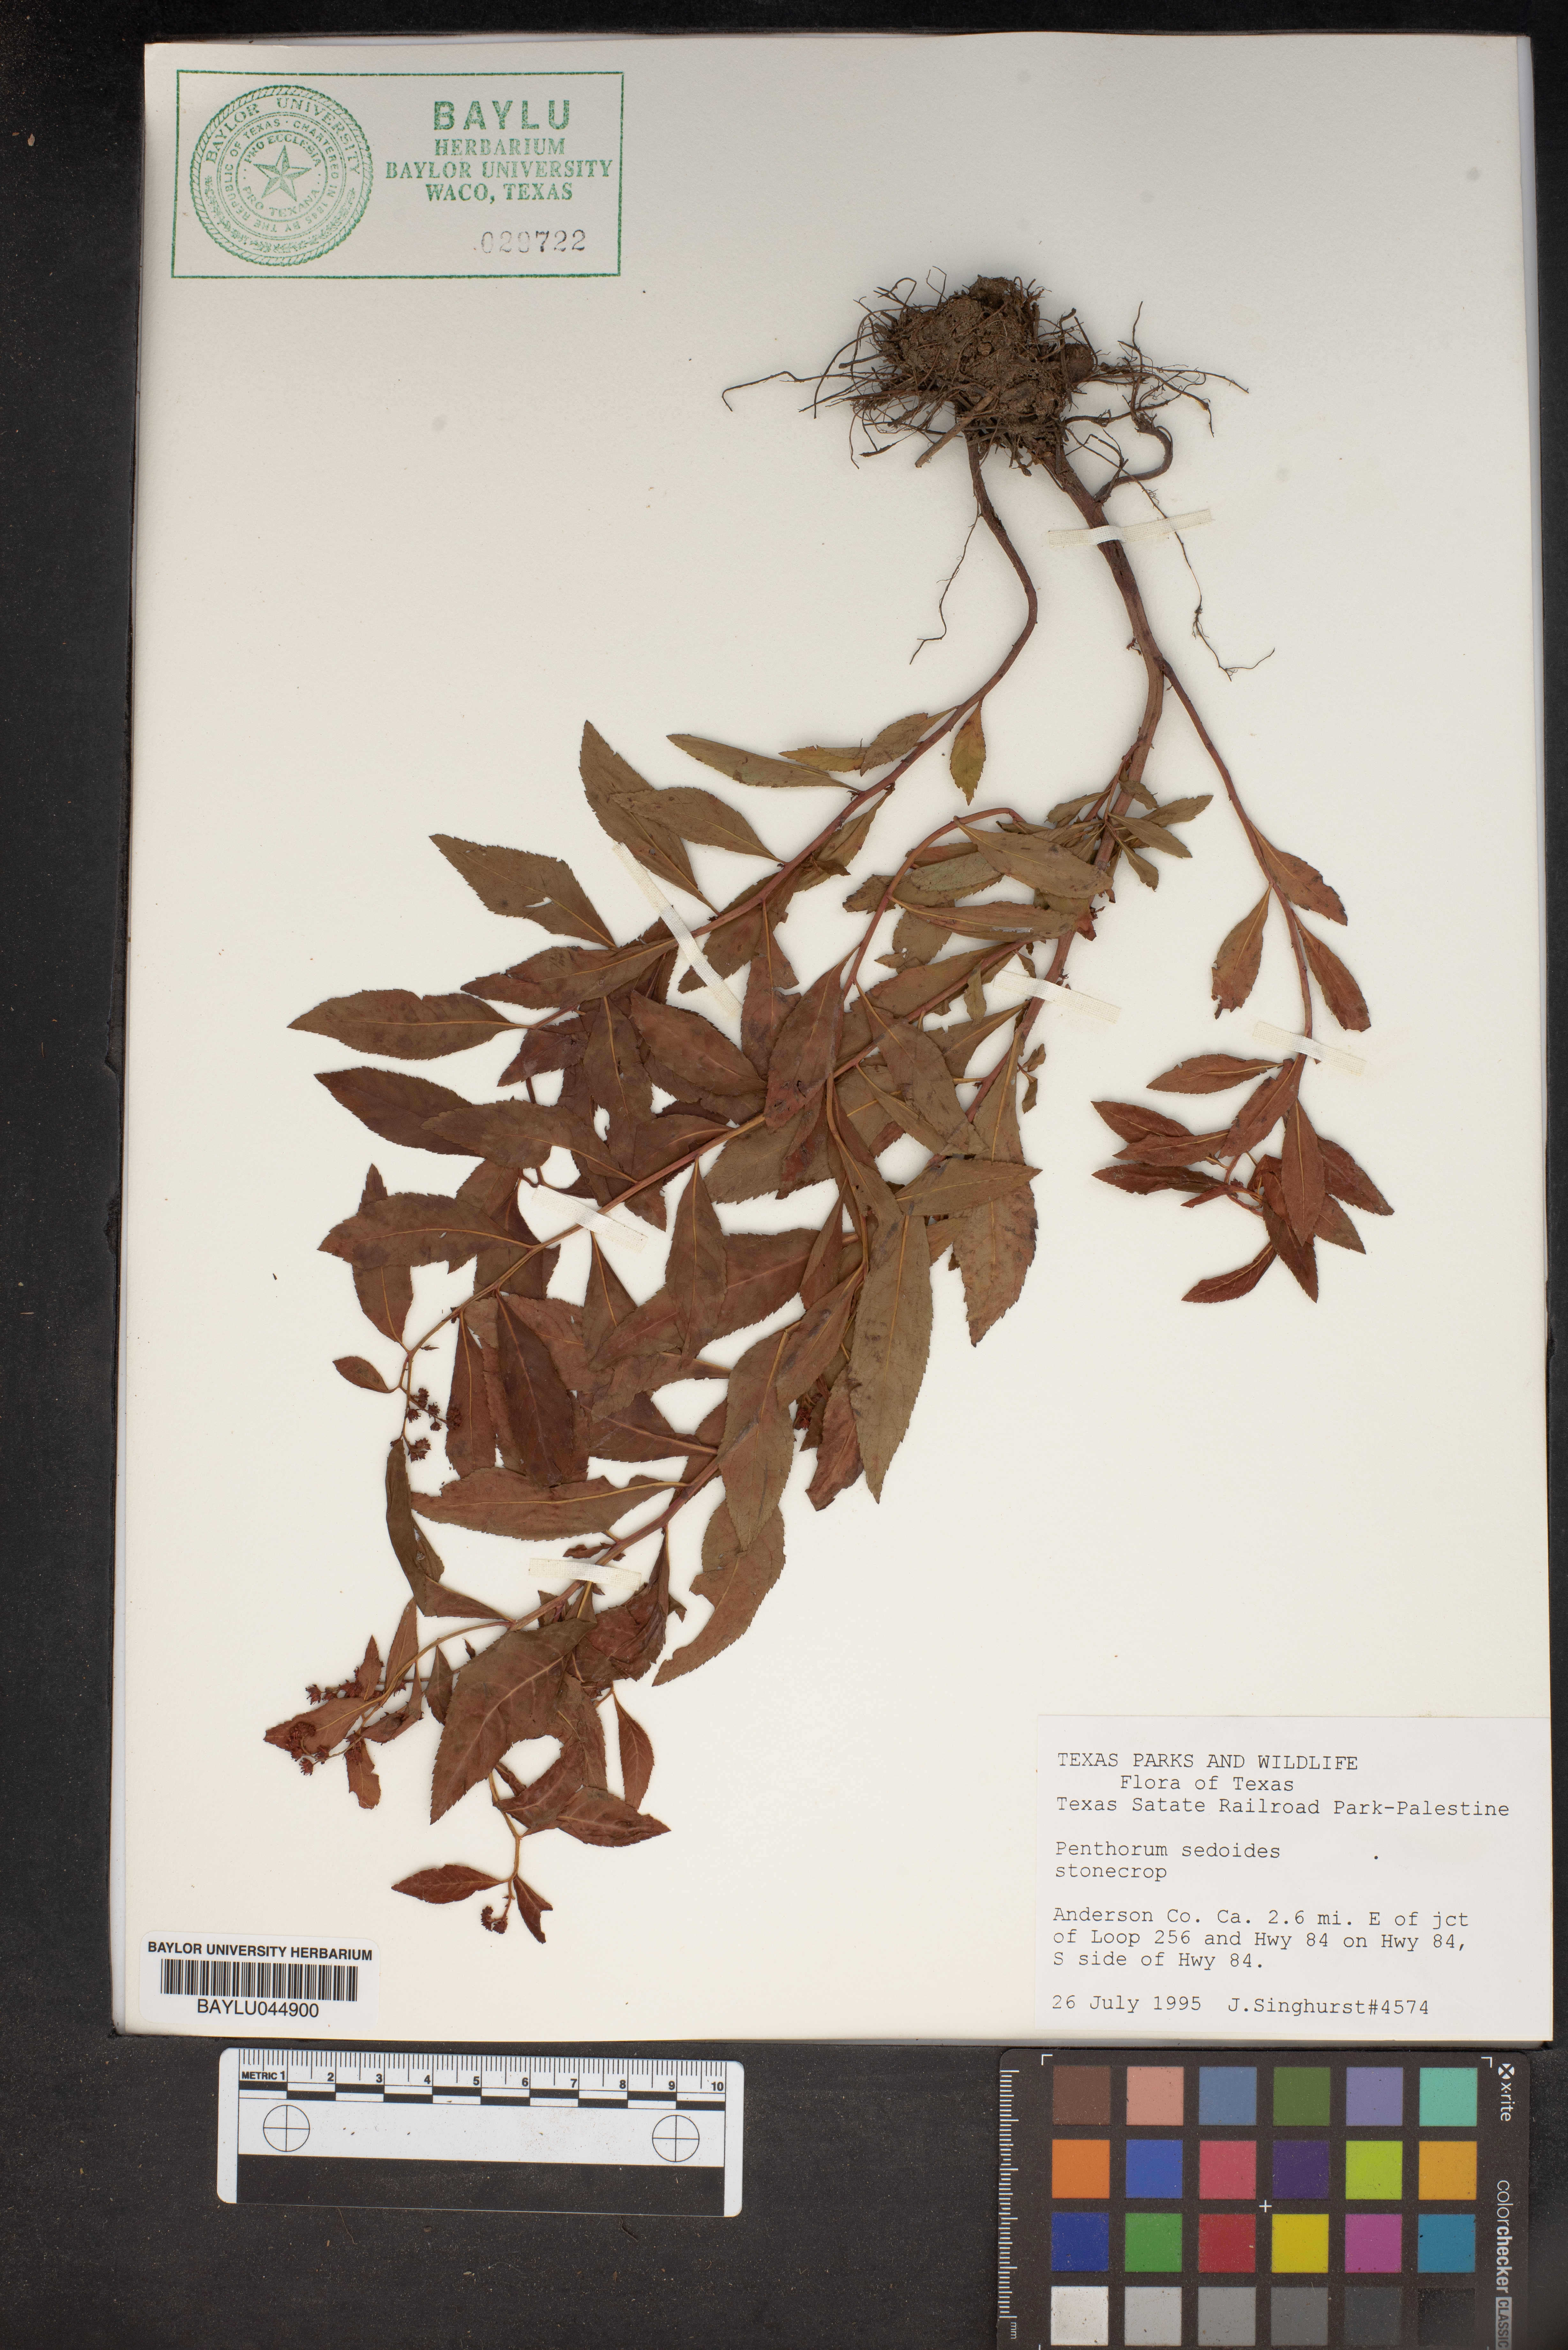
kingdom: Plantae
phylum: Tracheophyta
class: Magnoliopsida
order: Saxifragales
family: Penthoraceae
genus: Penthorum
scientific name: Penthorum sedoides
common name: Ditch stonecrop
